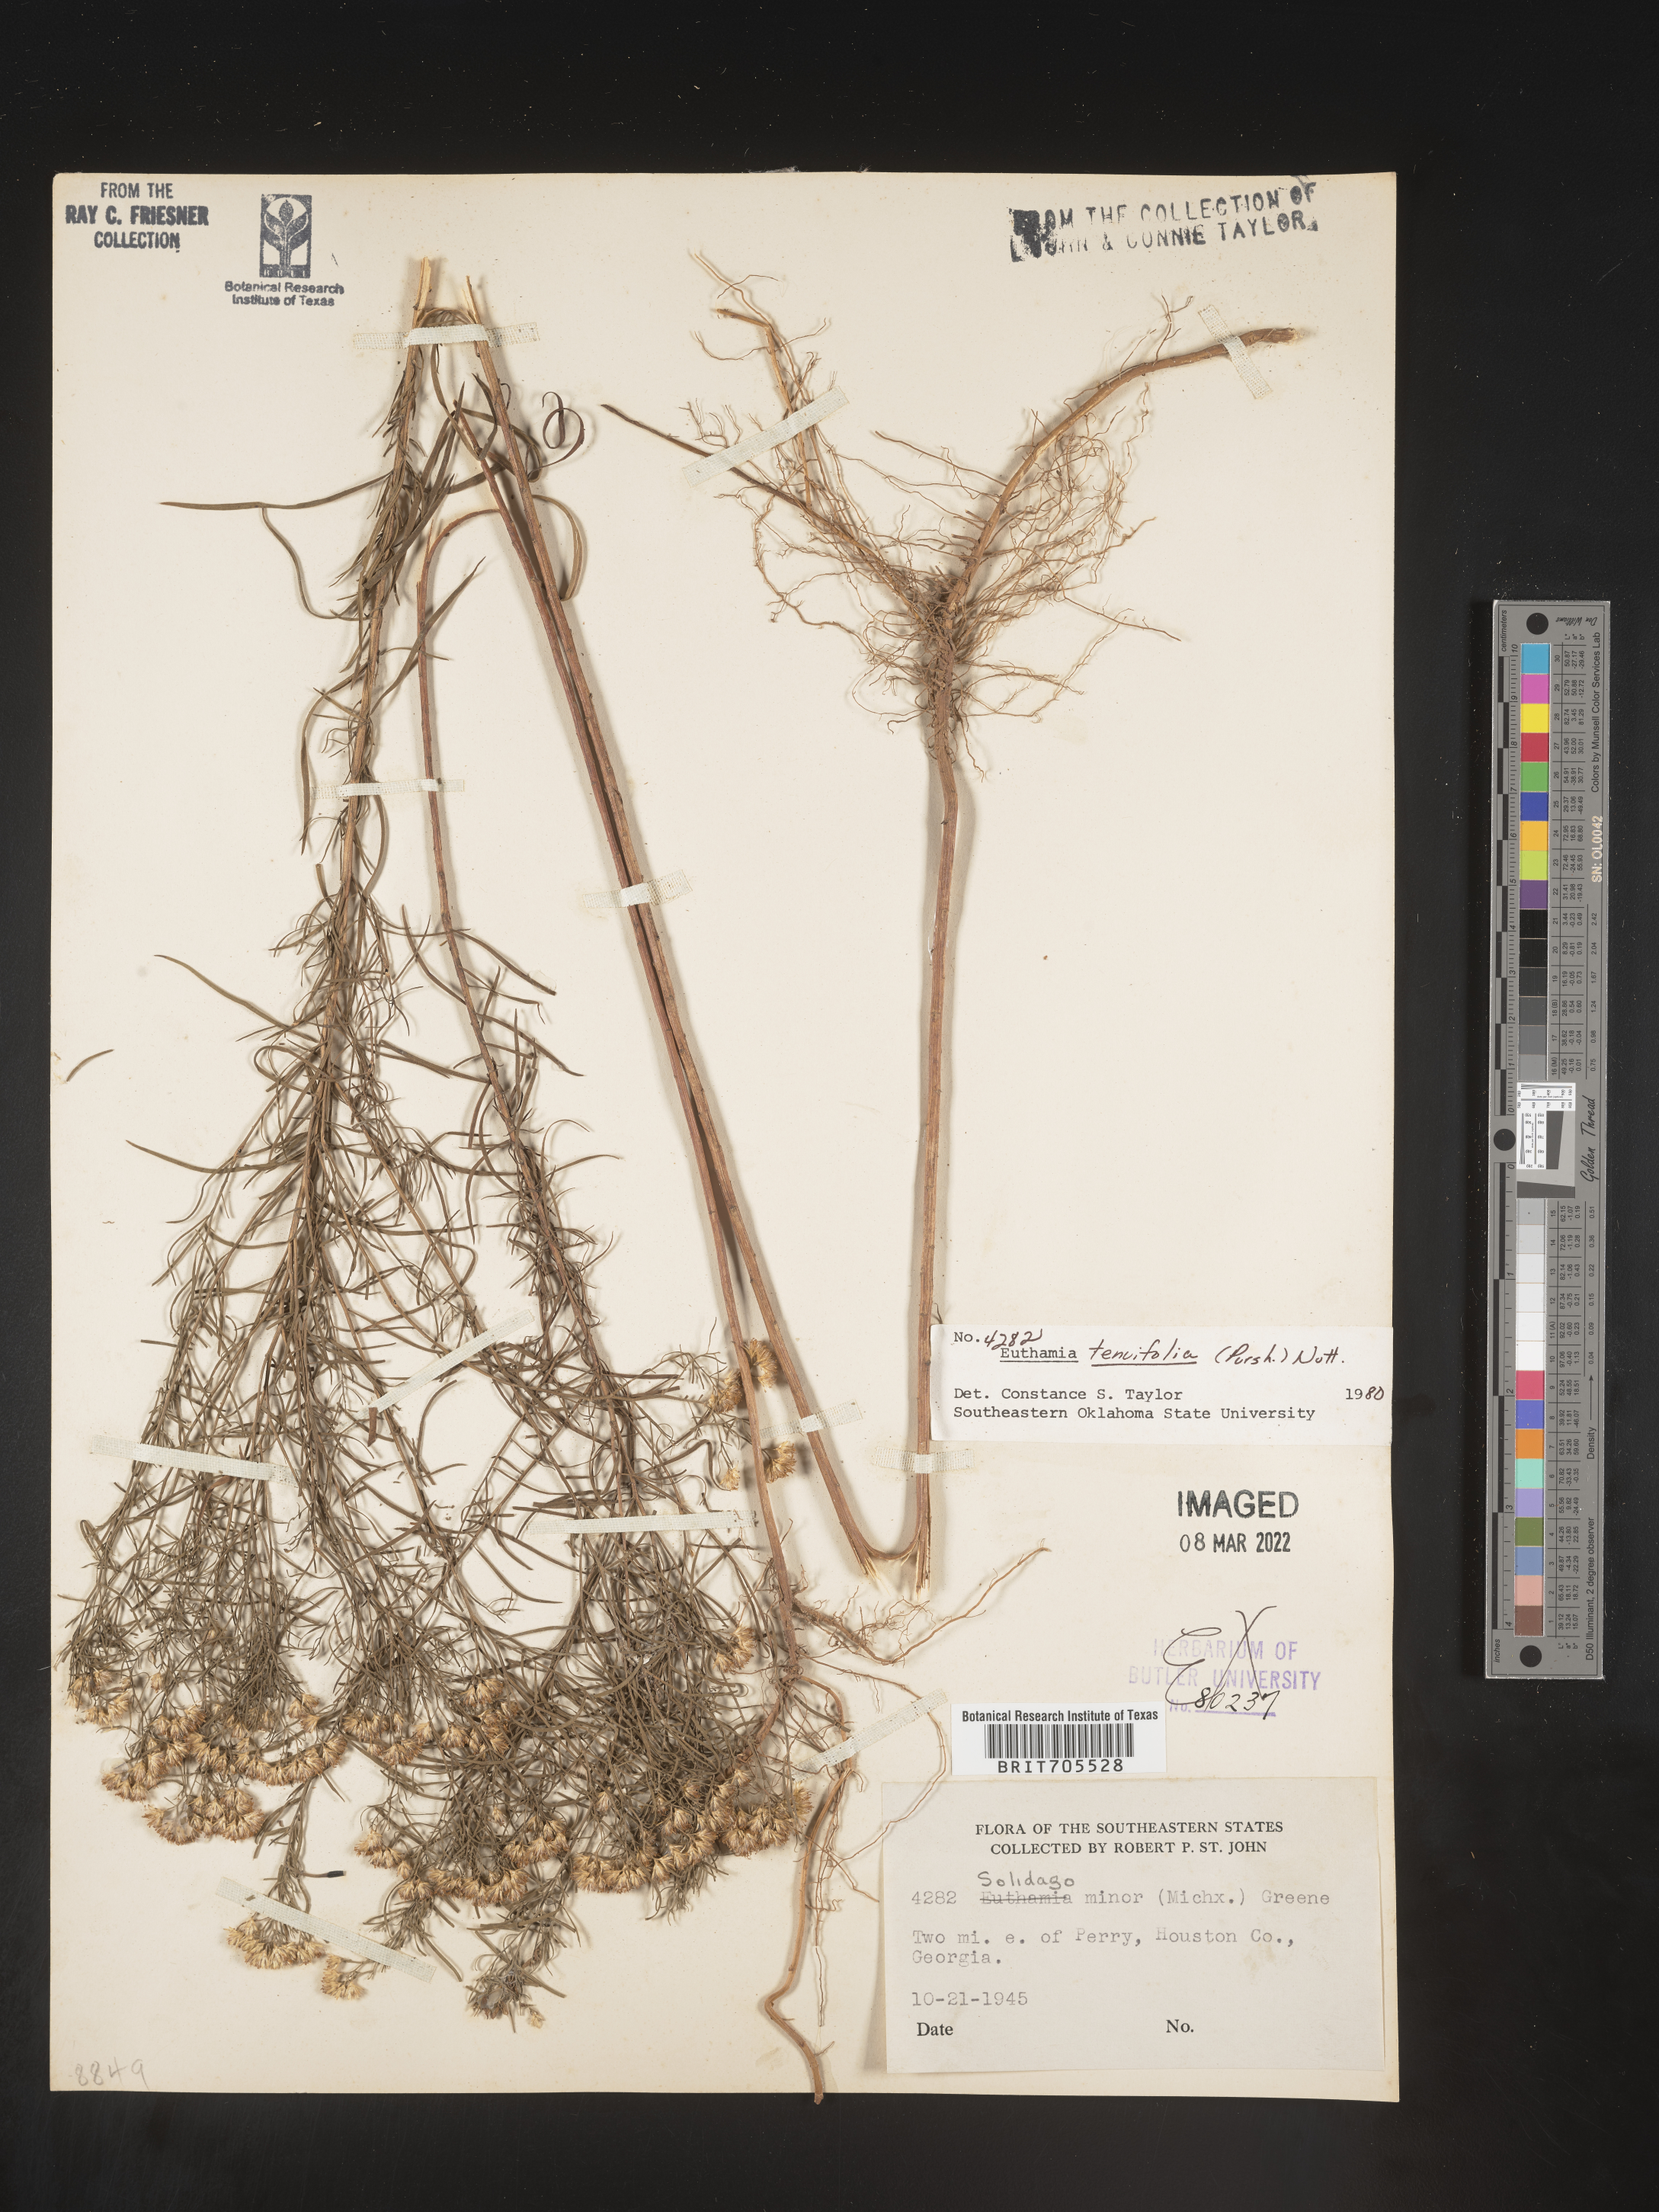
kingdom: Plantae
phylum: Tracheophyta
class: Magnoliopsida
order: Asterales
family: Asteraceae
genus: Euthamia
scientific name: Euthamia caroliniana
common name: Coastal plain goldentop
